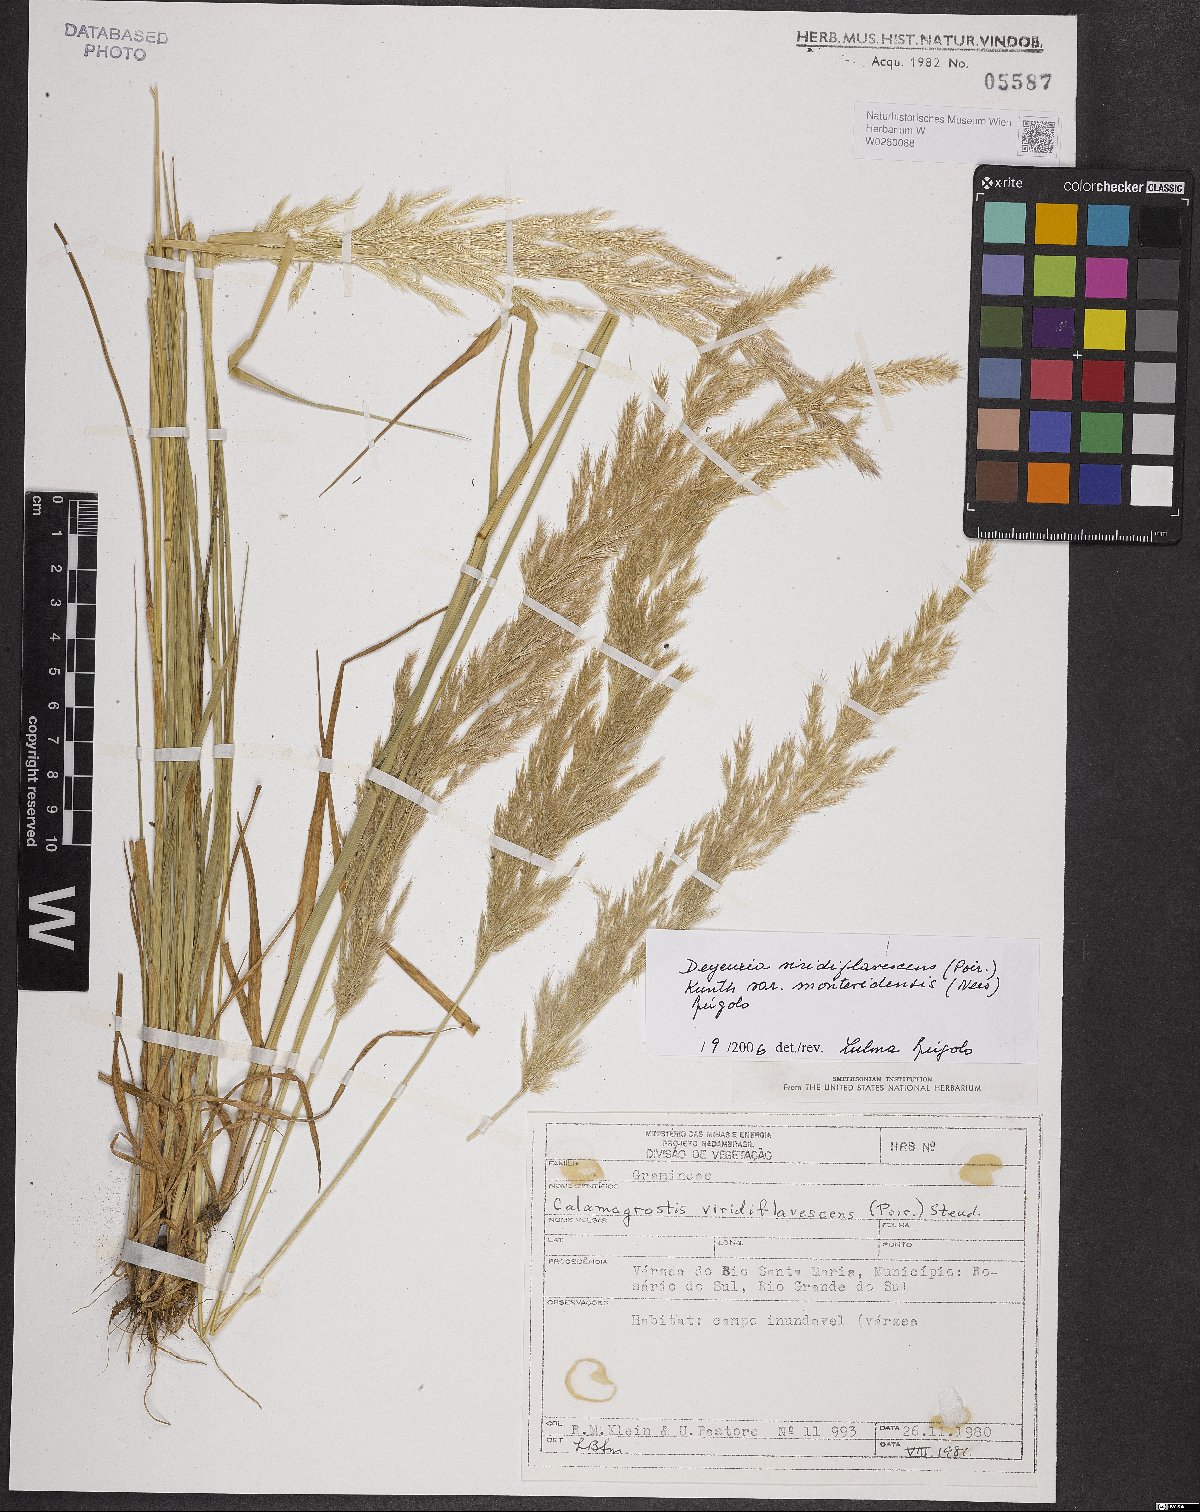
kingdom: Plantae
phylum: Tracheophyta
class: Liliopsida
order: Poales
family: Poaceae
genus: Cinnagrostis
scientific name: Cinnagrostis viridiflavescens
